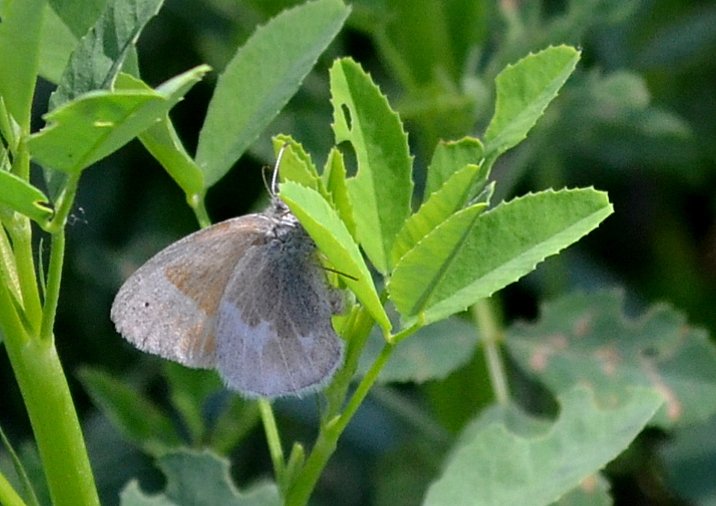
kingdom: Animalia
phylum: Arthropoda
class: Insecta
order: Lepidoptera
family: Nymphalidae
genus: Coenonympha
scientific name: Coenonympha tullia
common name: Large Heath
